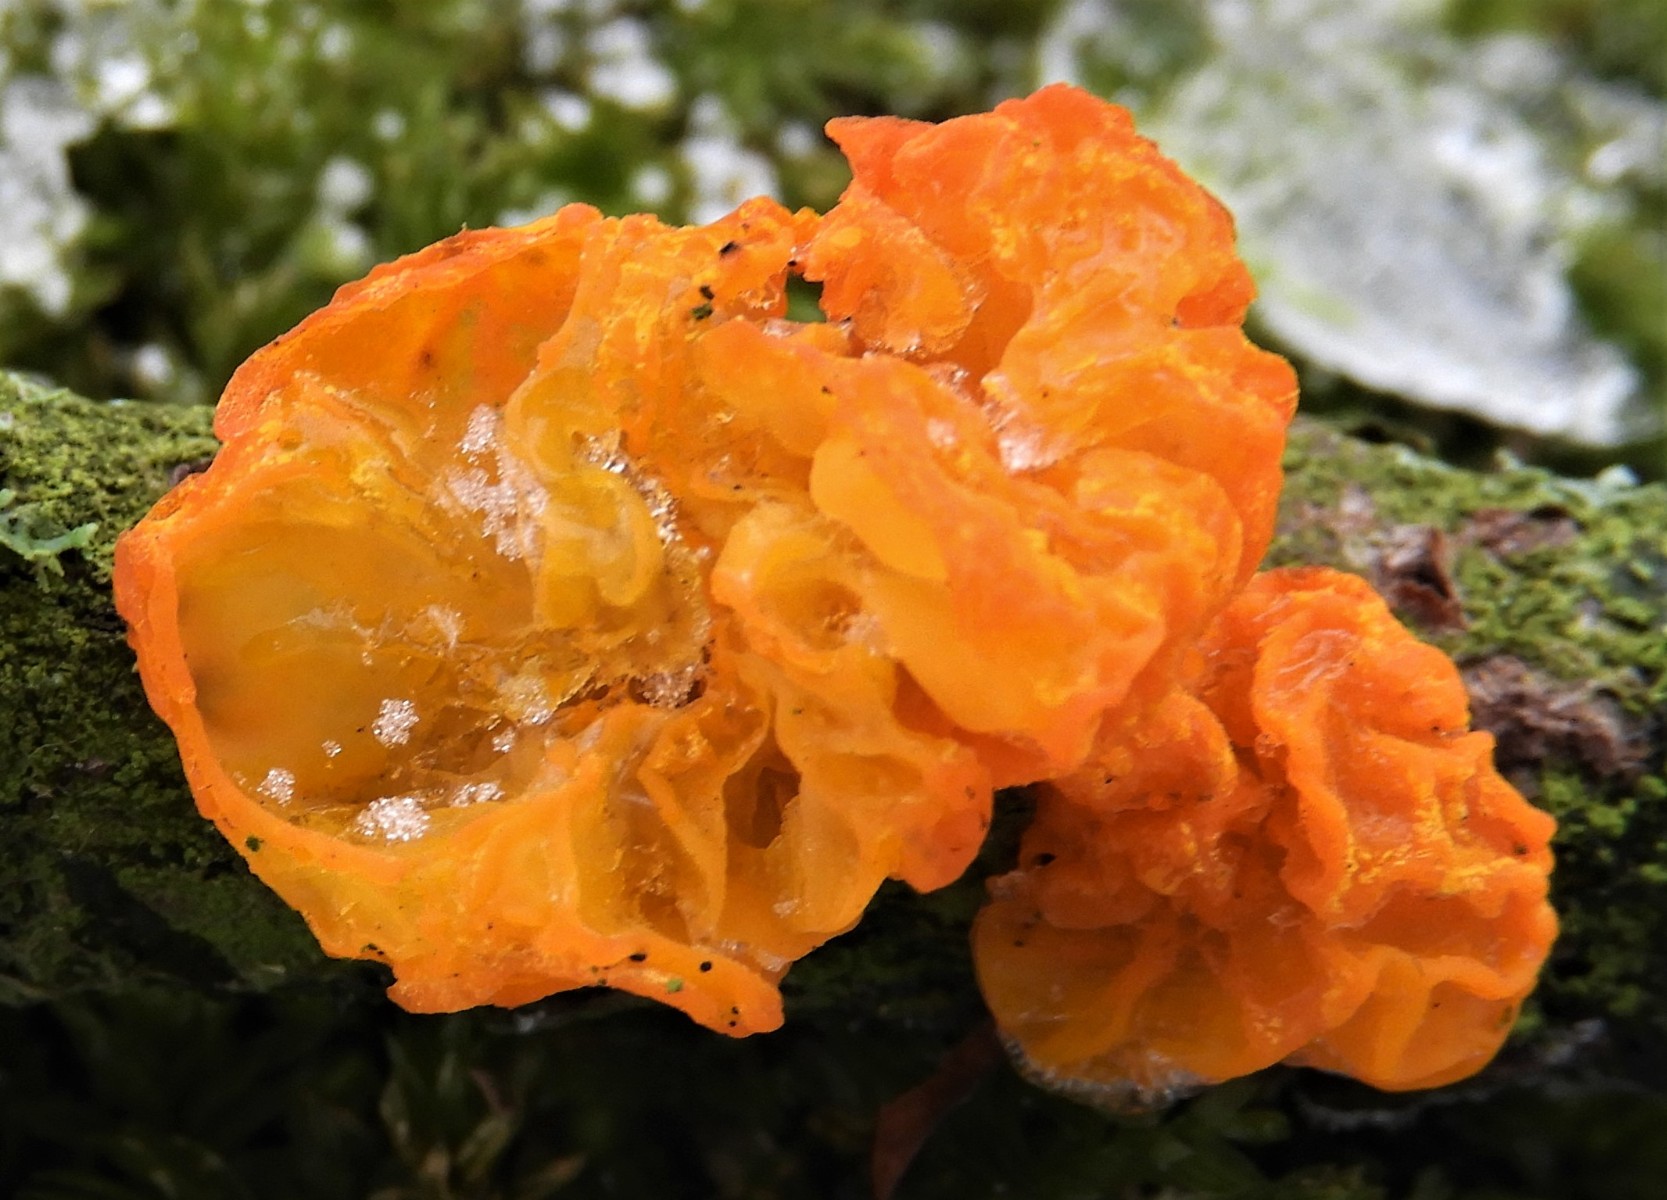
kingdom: Fungi
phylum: Basidiomycota
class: Tremellomycetes
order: Tremellales
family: Tremellaceae
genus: Tremella
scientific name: Tremella mesenterica
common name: gul bævresvamp
